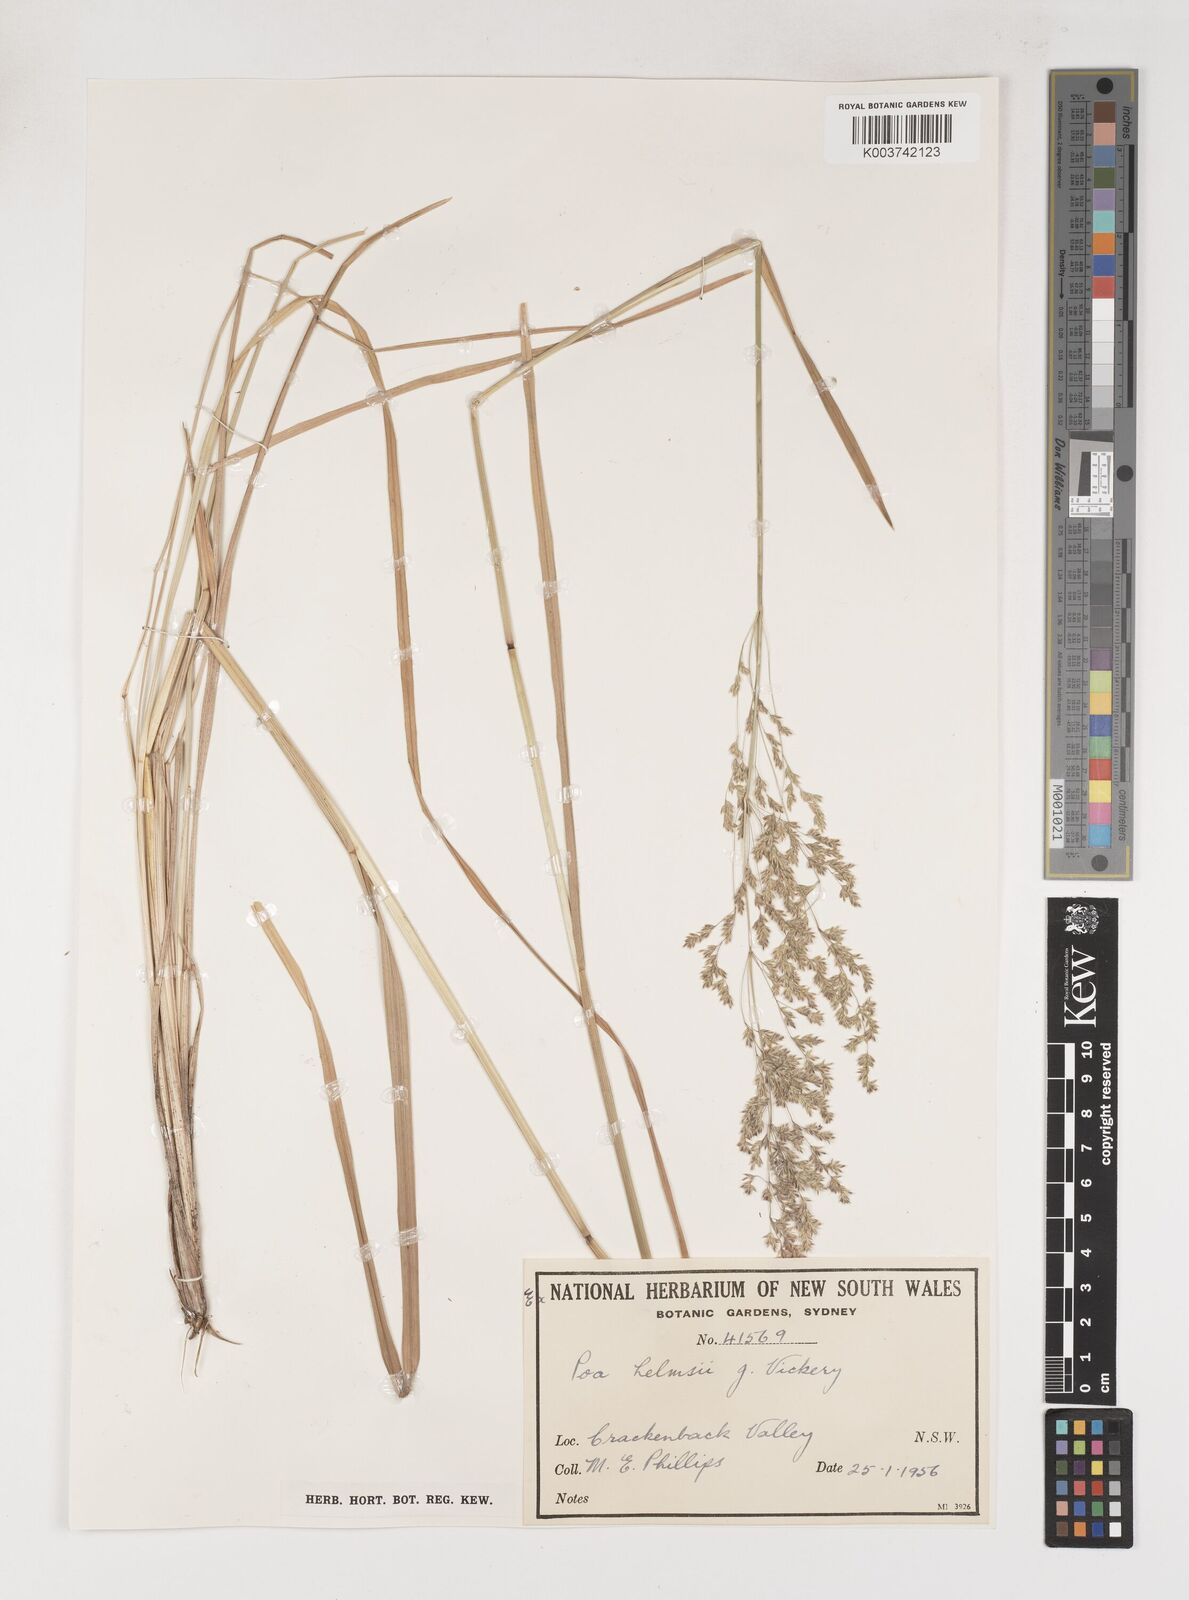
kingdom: Plantae
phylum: Tracheophyta
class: Liliopsida
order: Poales
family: Poaceae
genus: Poa
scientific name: Poa helmsii
